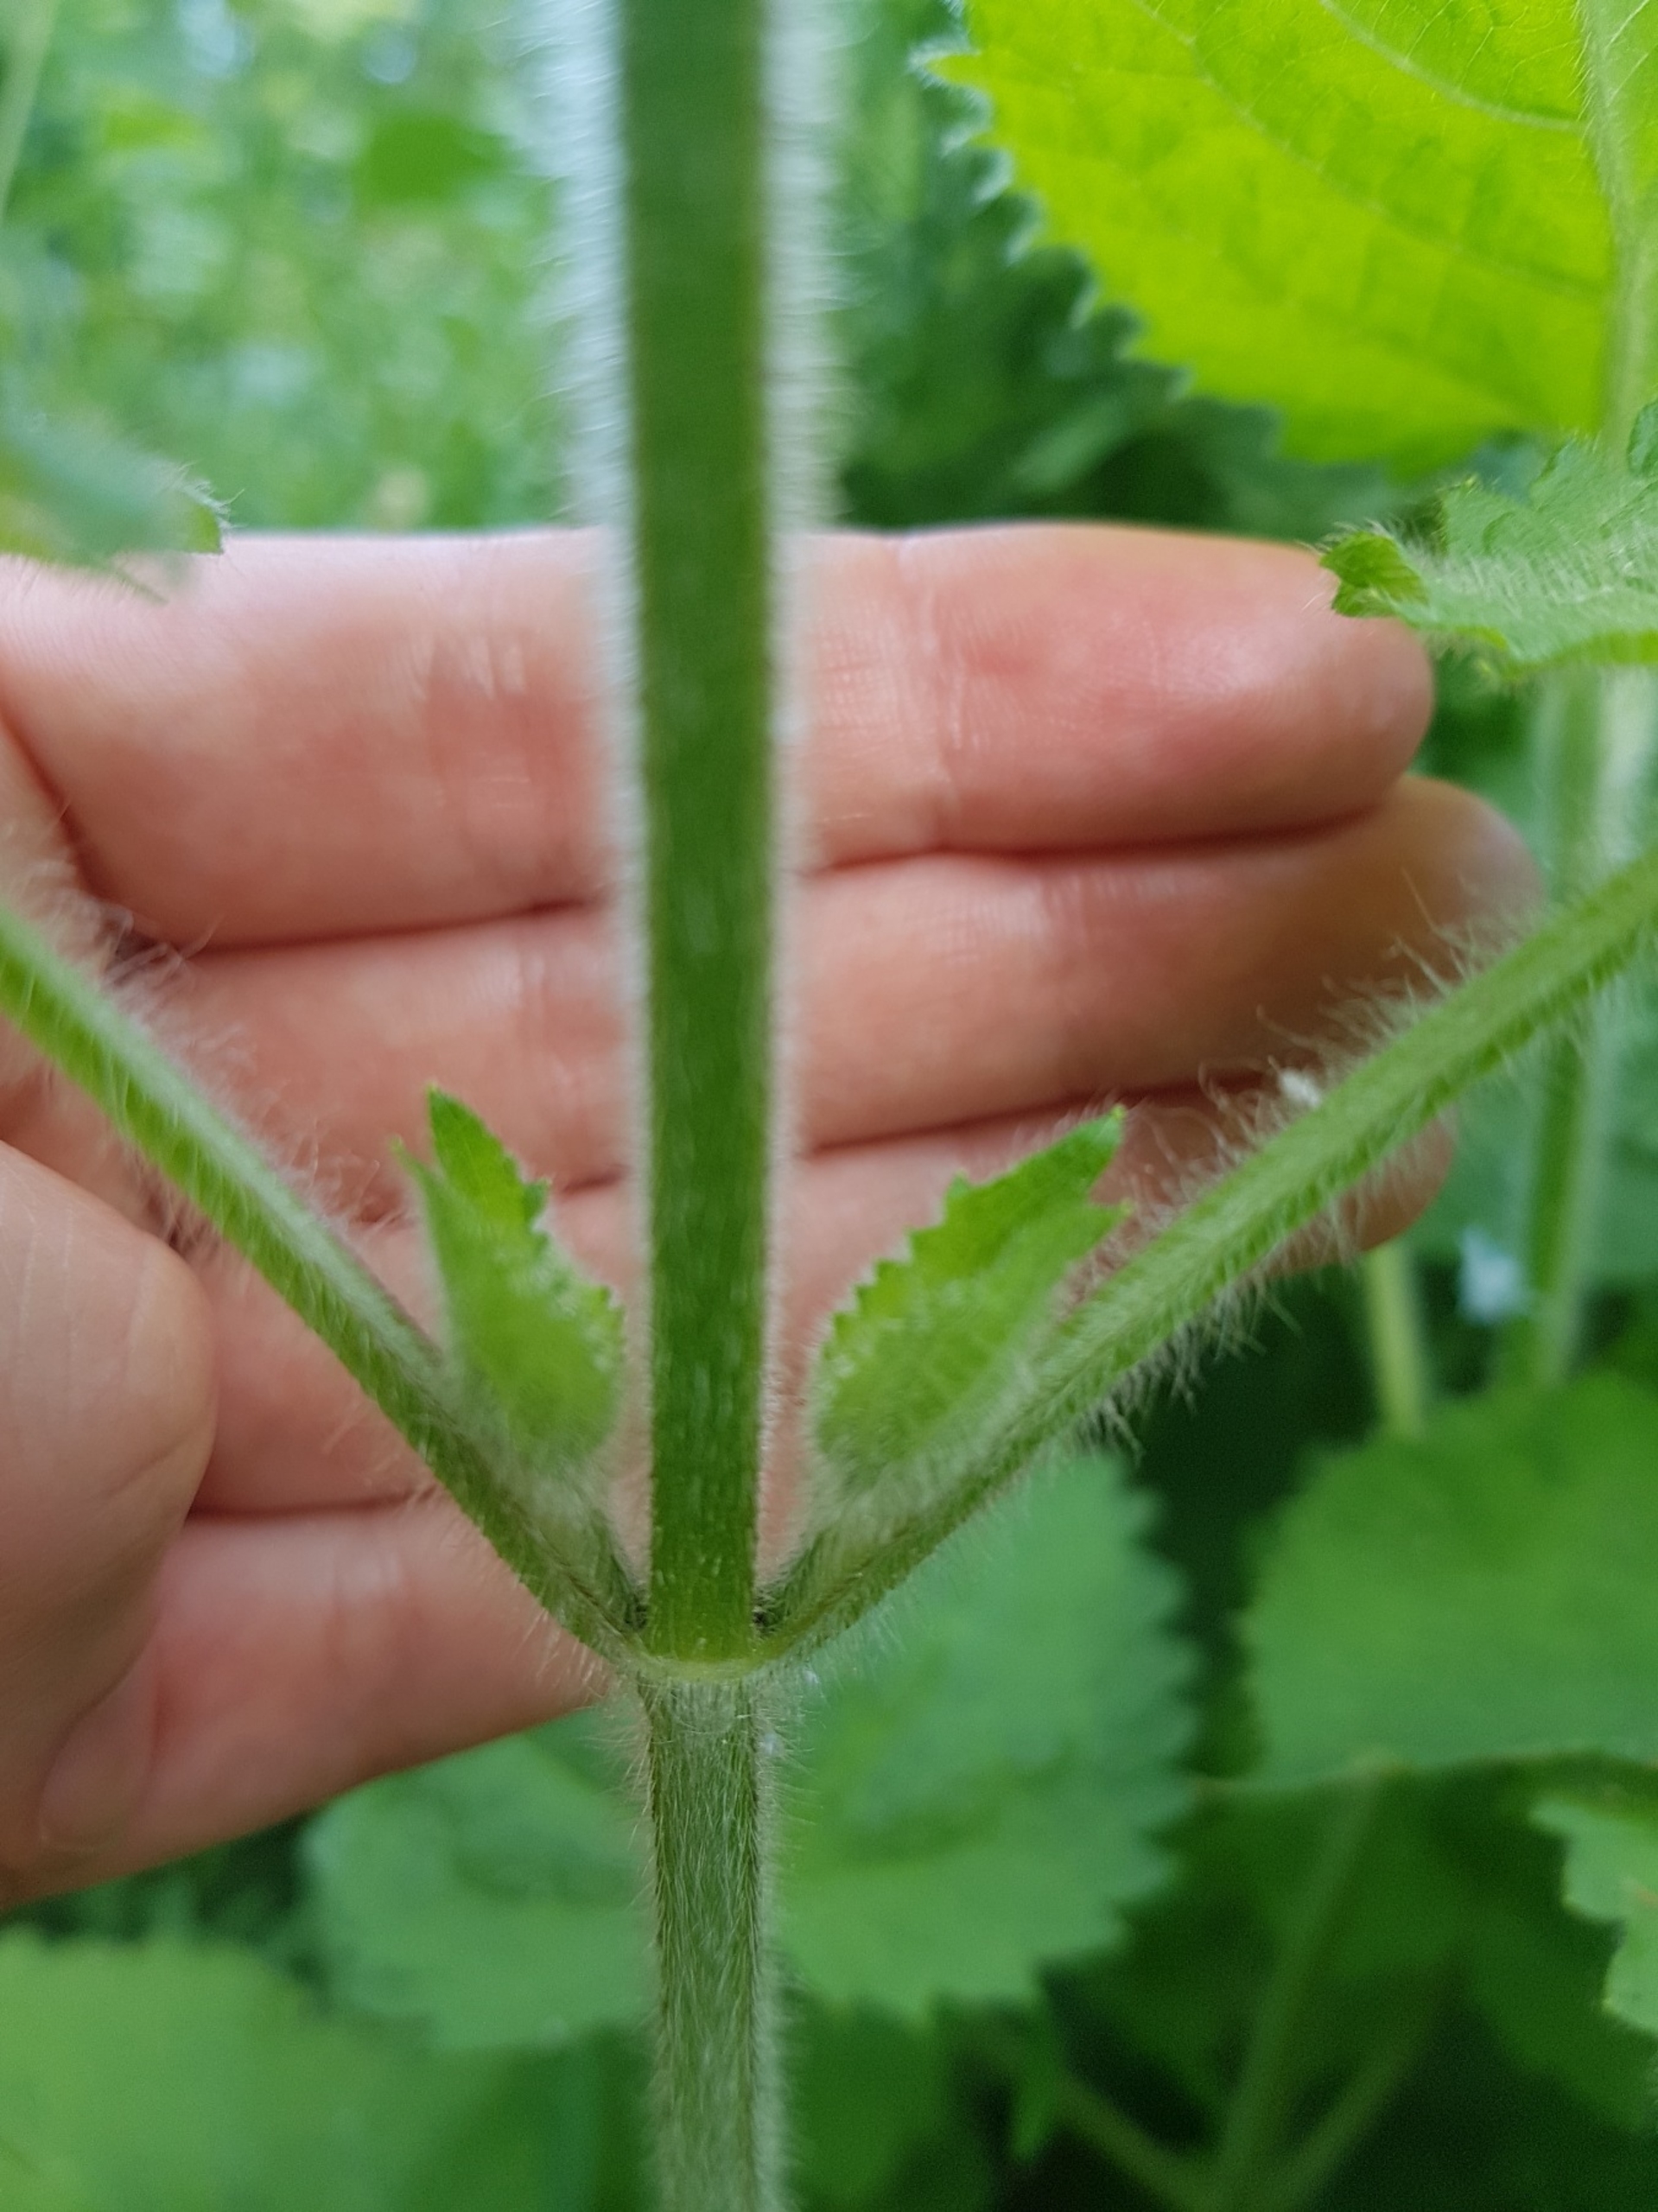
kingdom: Plantae
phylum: Tracheophyta
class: Magnoliopsida
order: Lamiales
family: Lamiaceae
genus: Stachys
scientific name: Stachys sylvatica
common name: Skov-galtetand
